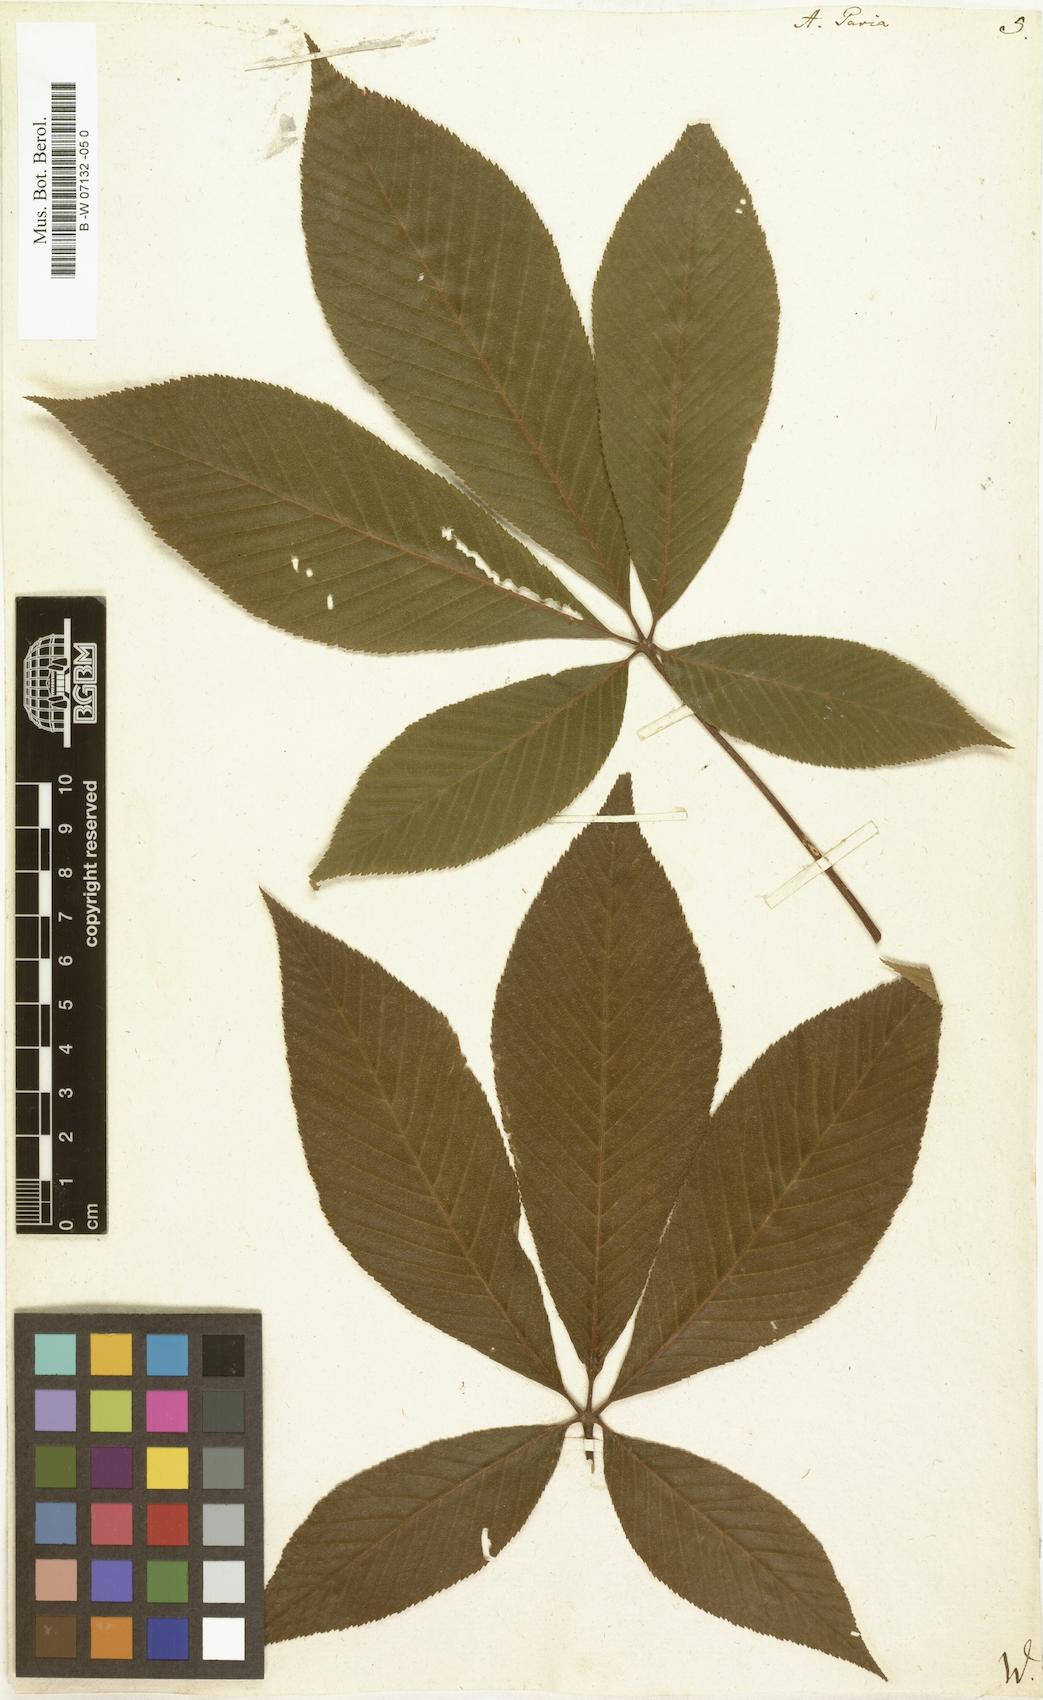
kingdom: Plantae
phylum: Tracheophyta
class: Magnoliopsida
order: Sapindales
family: Sapindaceae
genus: Aesculus
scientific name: Aesculus pavia
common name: Red buckeye
